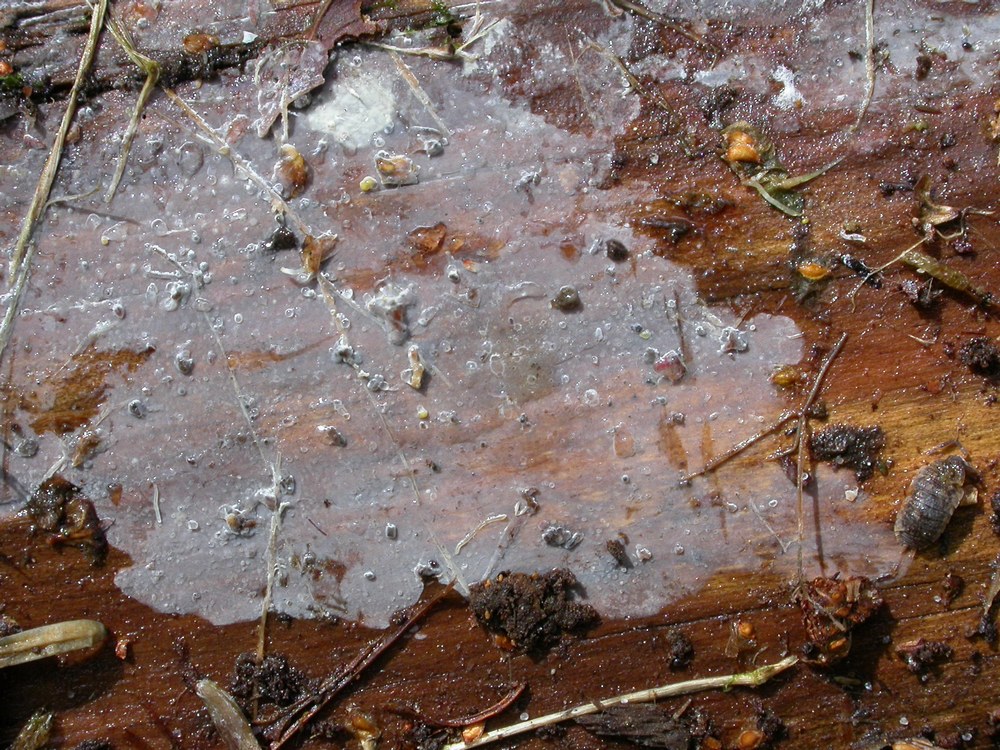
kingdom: Fungi
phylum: Basidiomycota
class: Agaricomycetes
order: Agaricales
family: Radulomycetaceae
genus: Aphanobasidium
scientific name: Aphanobasidium pseudotsugae
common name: tynd naftalinskind
